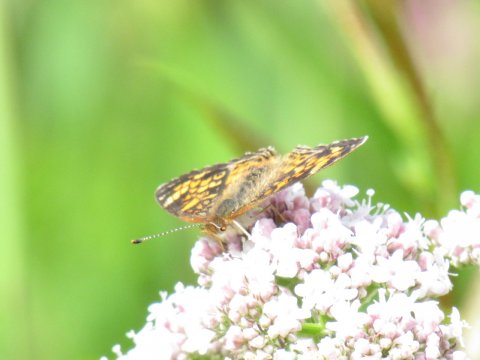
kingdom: Animalia
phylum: Arthropoda
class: Insecta
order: Lepidoptera
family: Nymphalidae
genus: Phyciodes
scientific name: Phyciodes tharos
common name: Pearl Crescent
